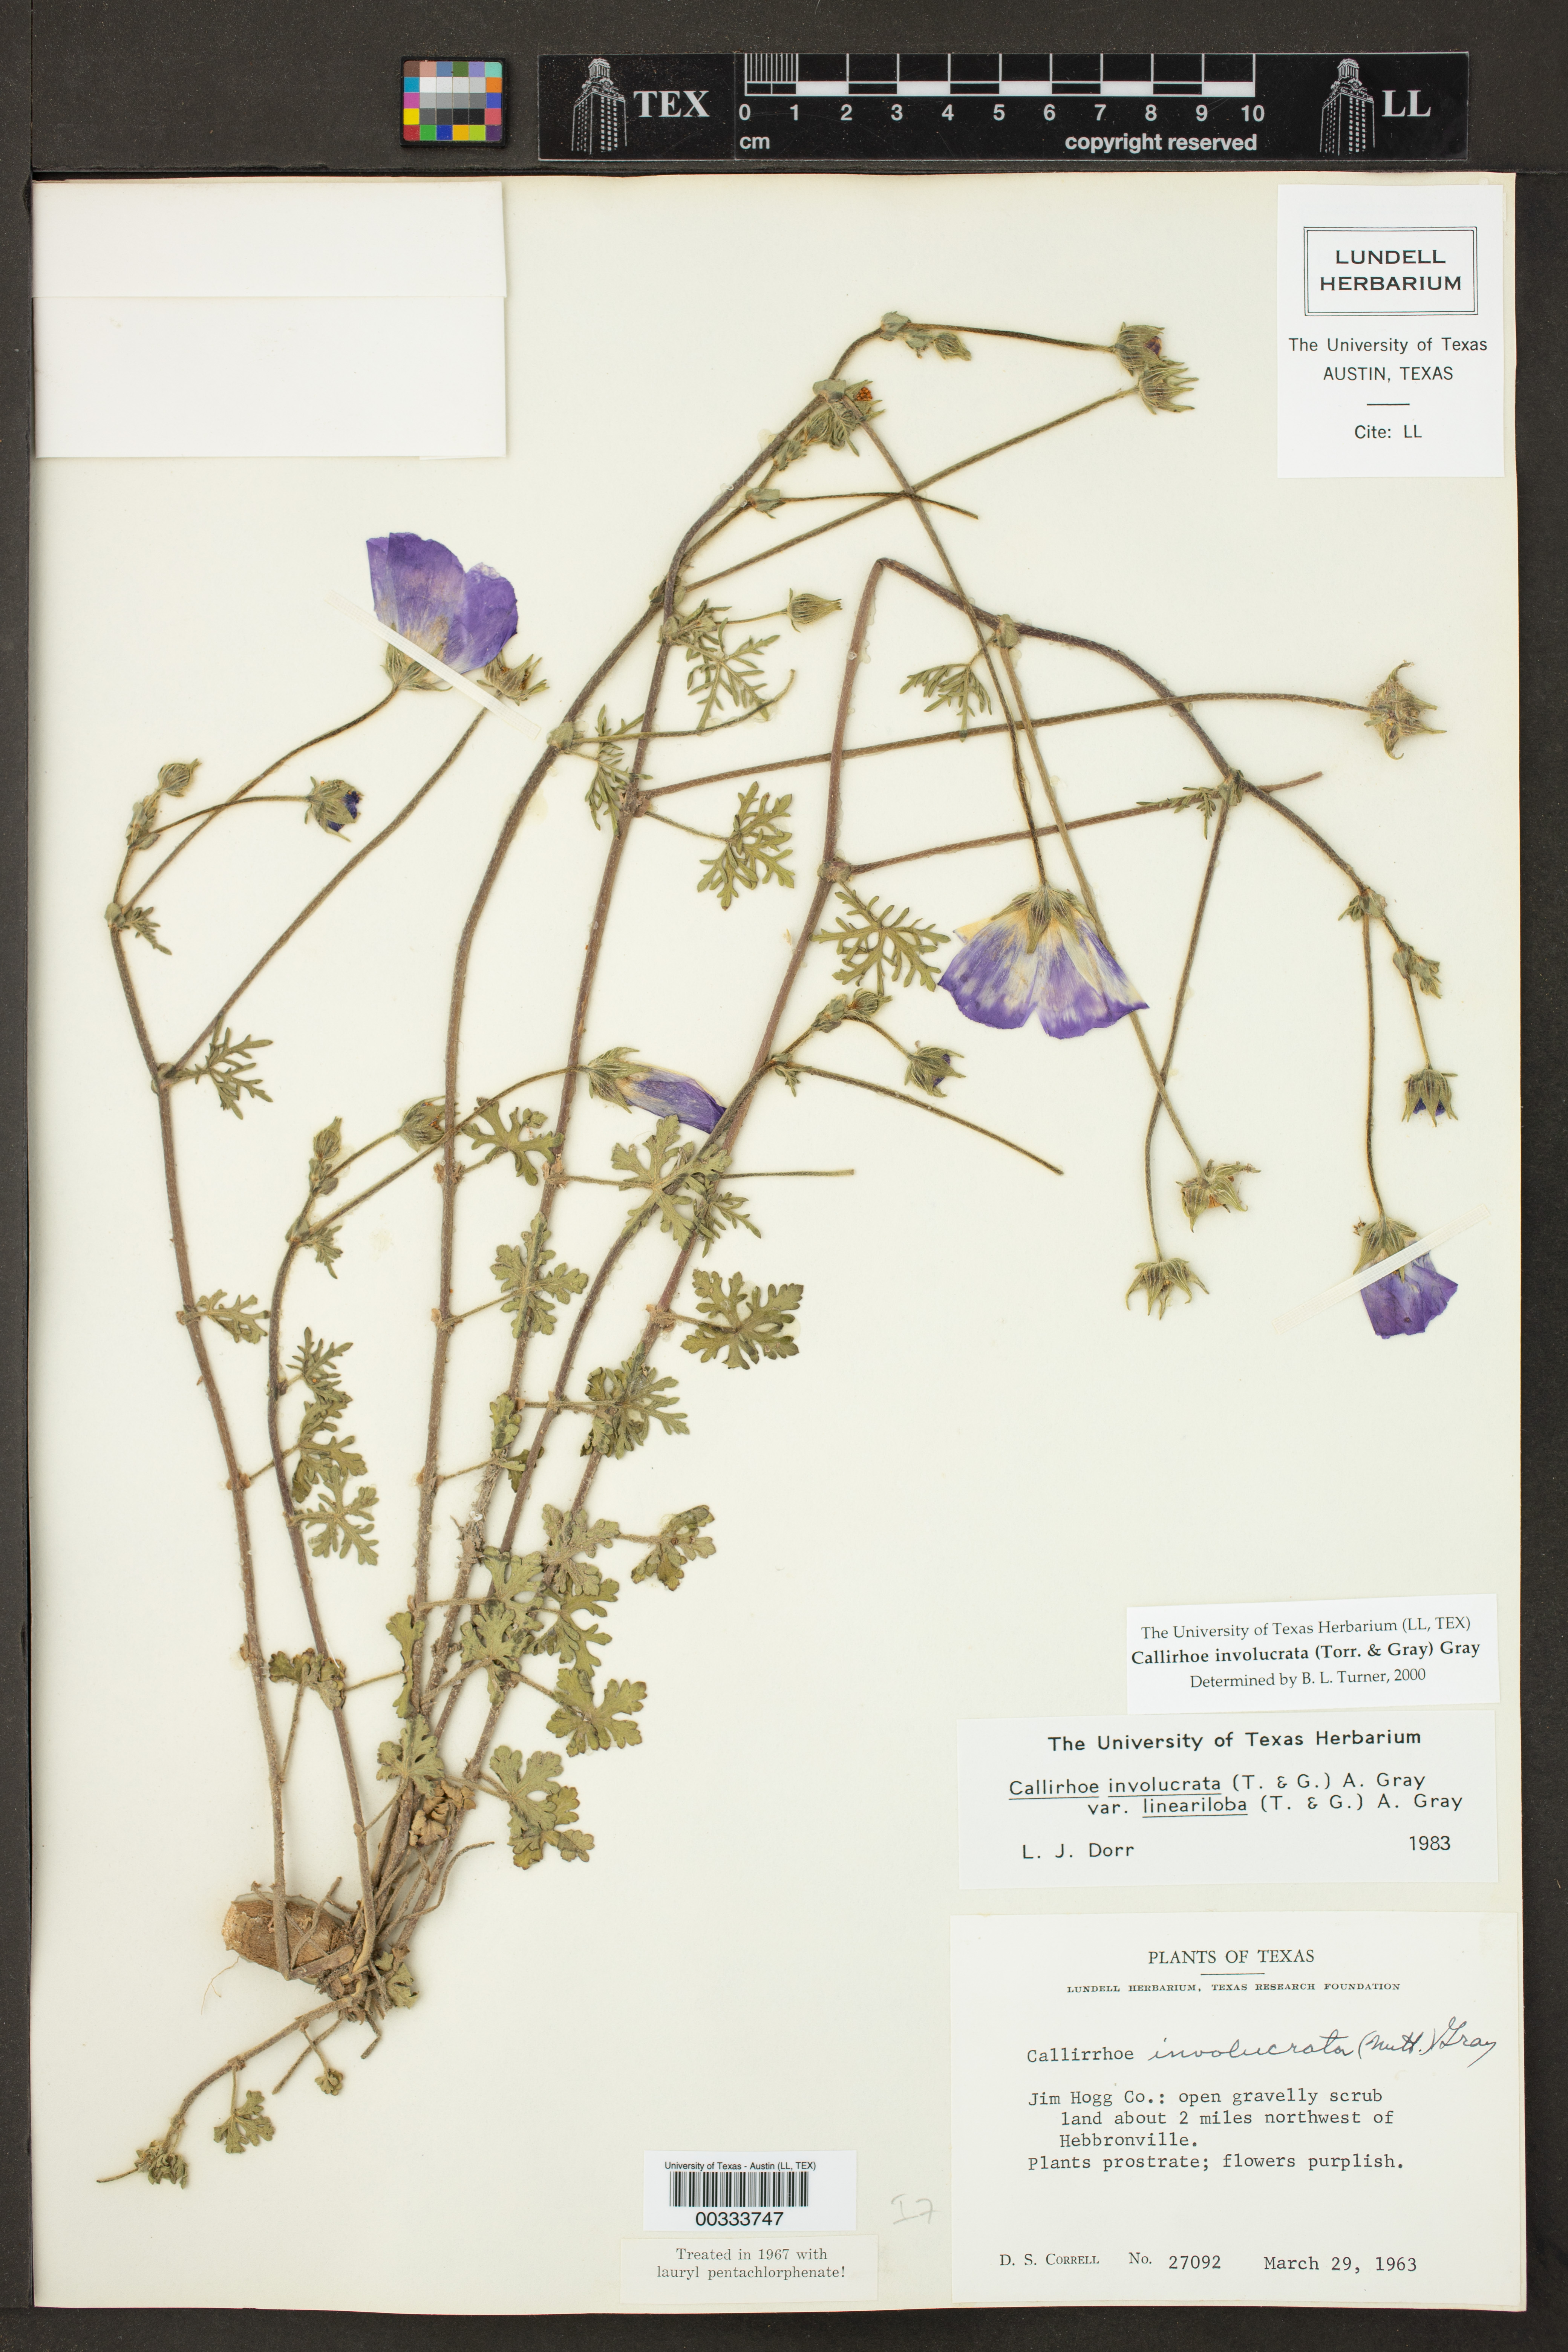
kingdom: Plantae
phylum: Tracheophyta
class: Magnoliopsida
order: Malvales
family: Malvaceae
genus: Callirhoe
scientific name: Callirhoe involucrata
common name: Purple poppy-mallow
